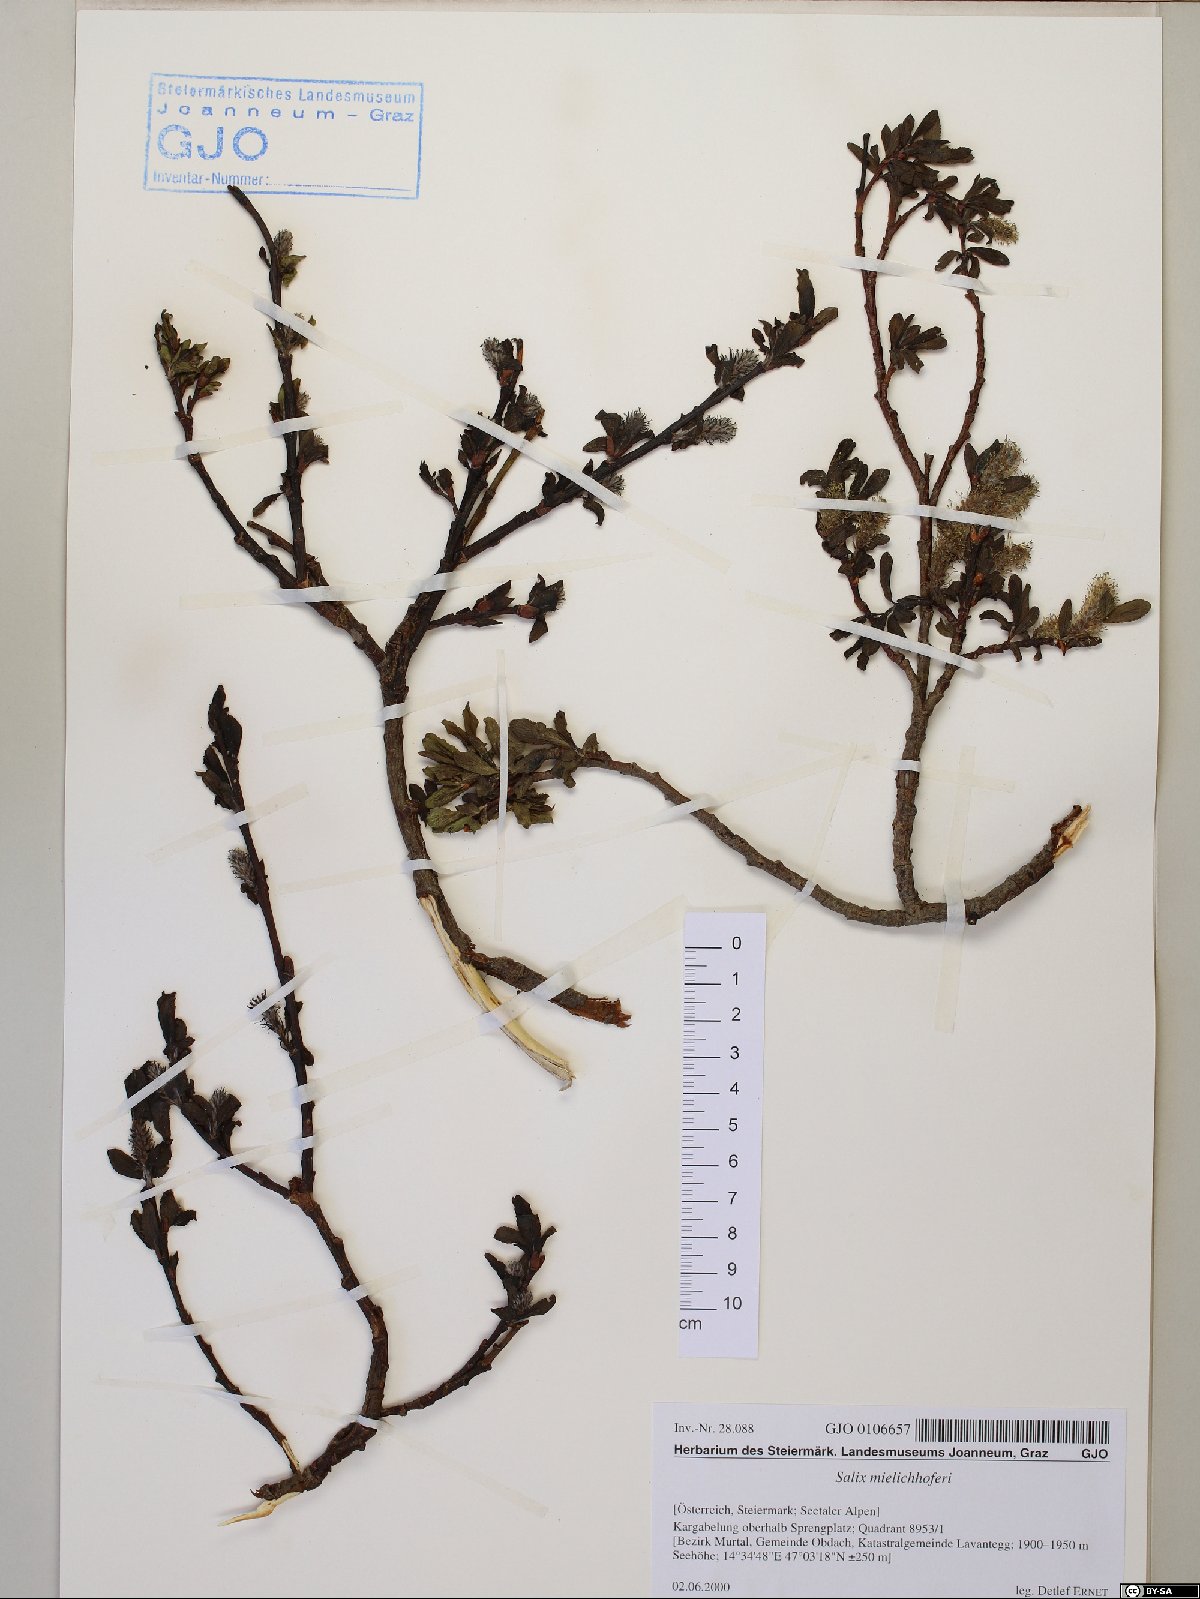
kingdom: Plantae
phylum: Tracheophyta
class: Magnoliopsida
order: Malpighiales
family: Salicaceae
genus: Salix
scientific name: Salix mielichhoferi
